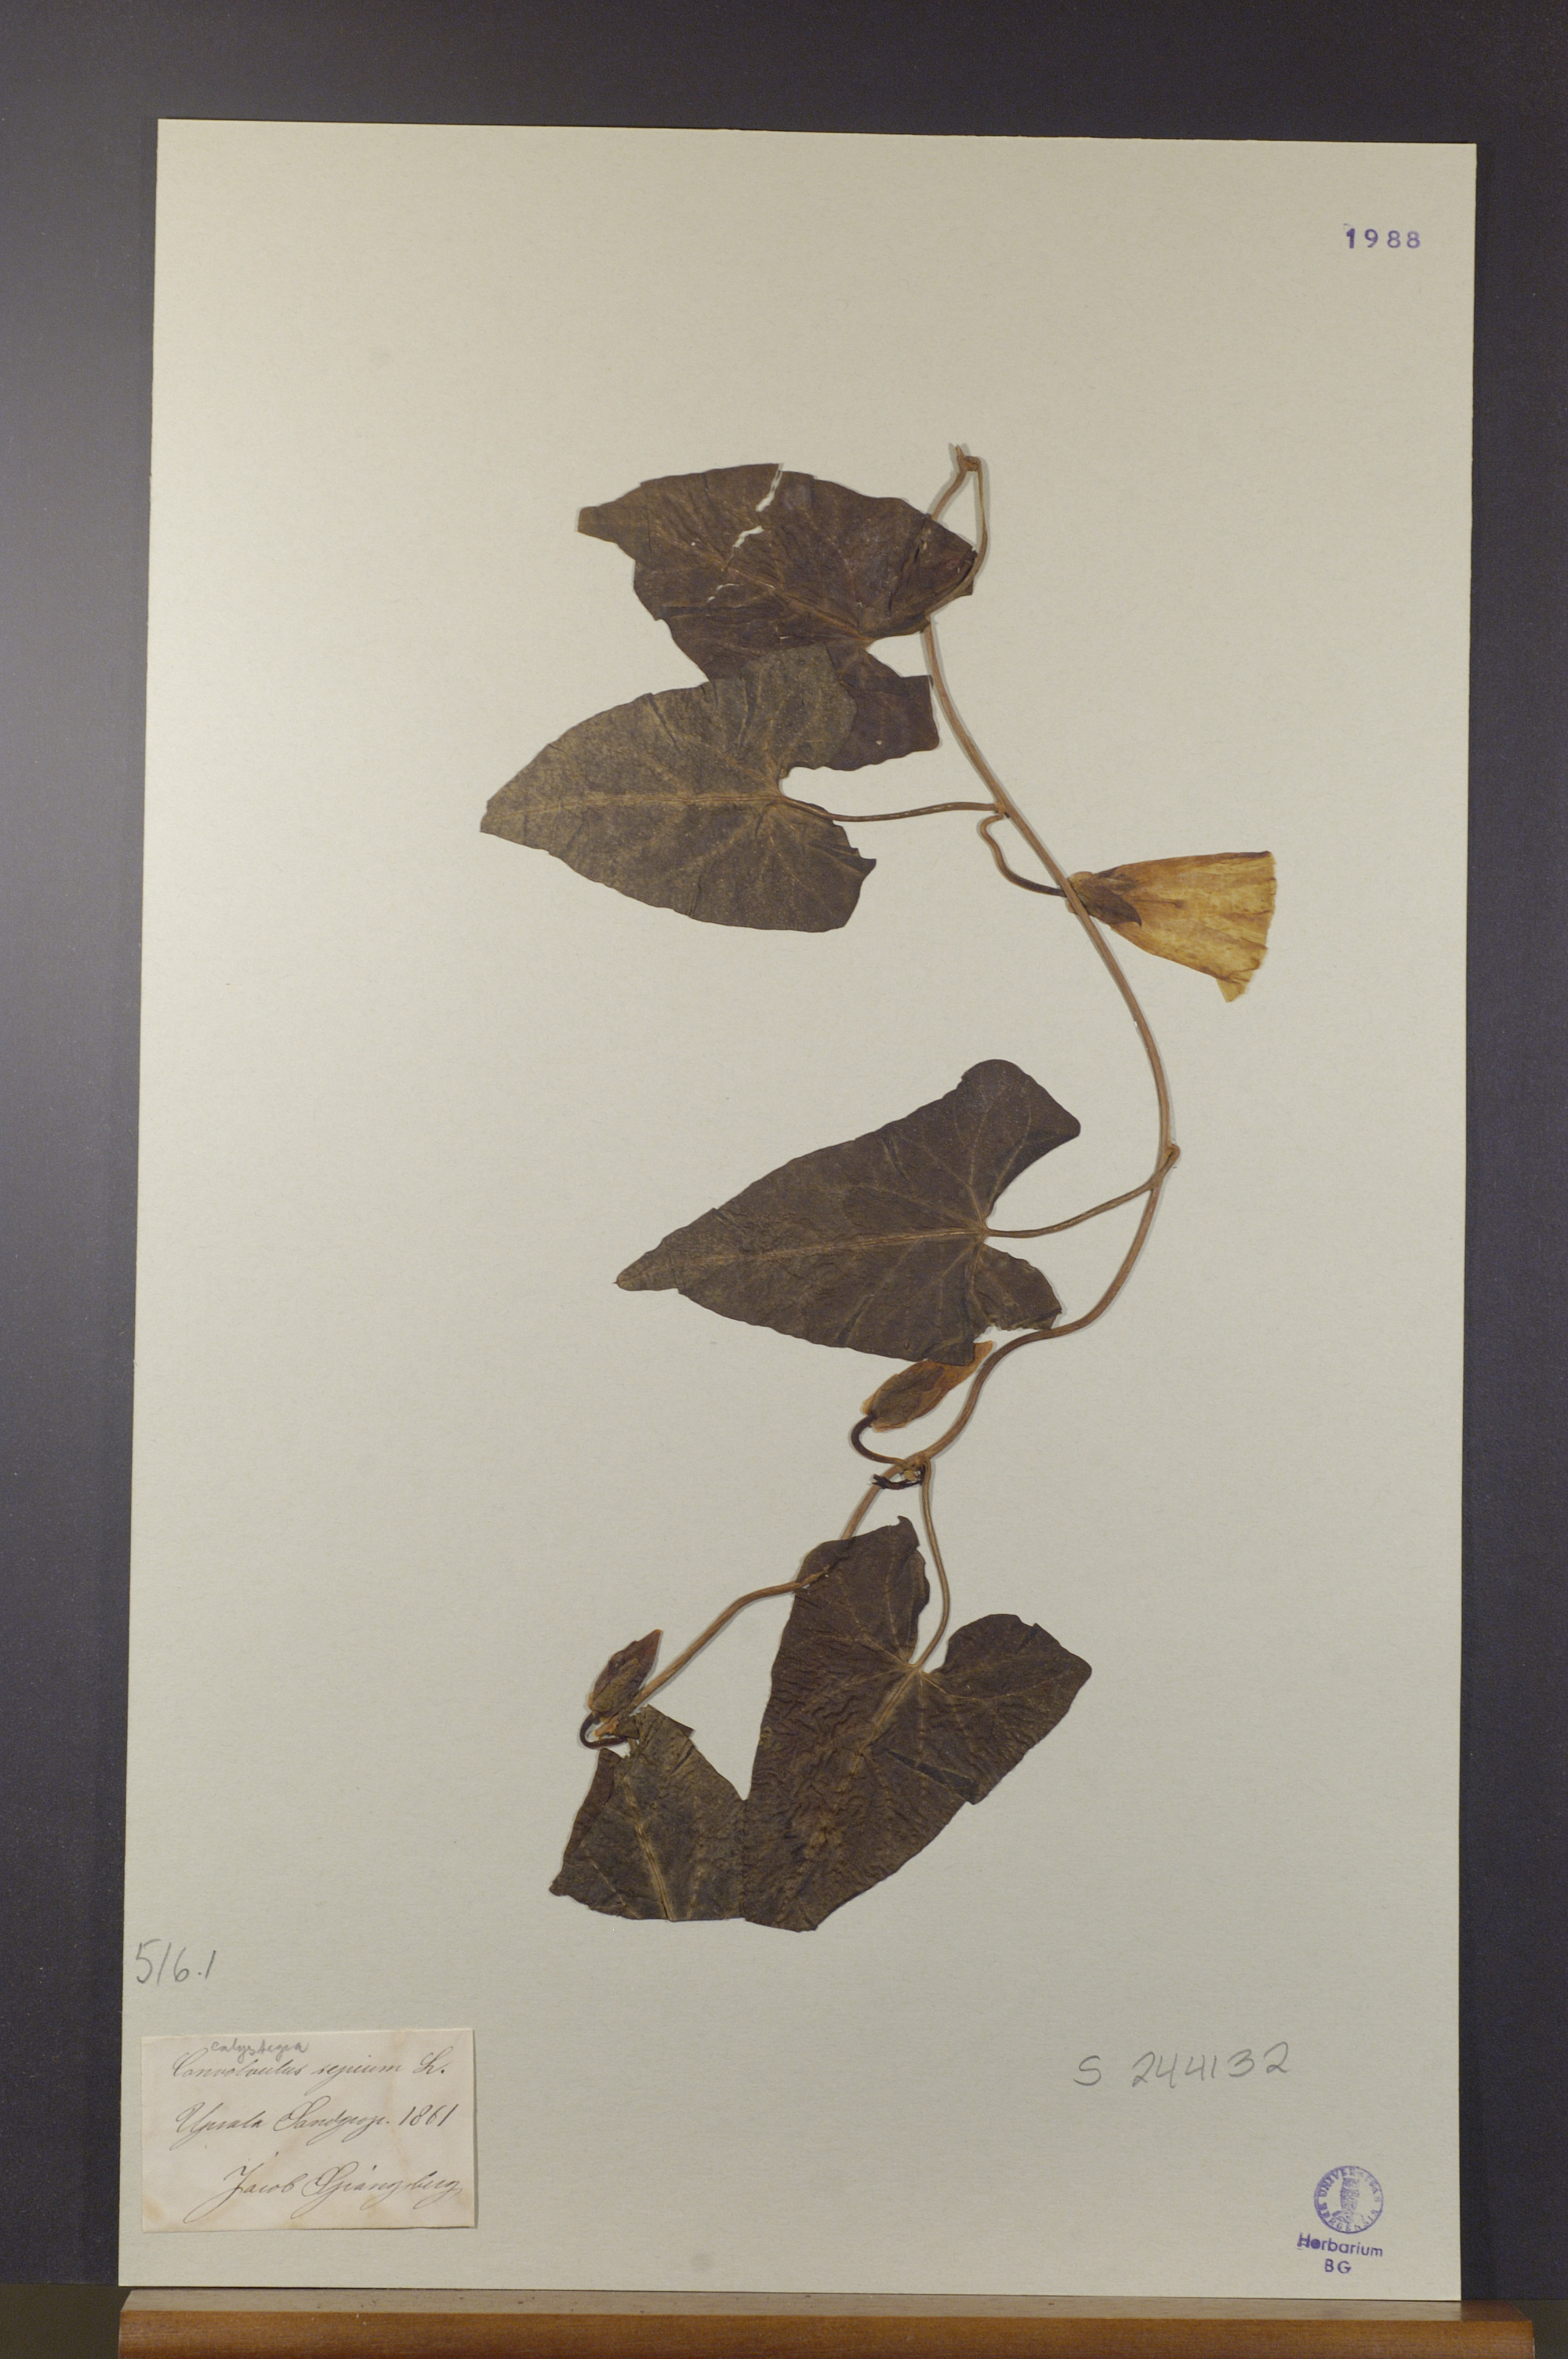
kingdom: Plantae
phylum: Tracheophyta
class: Magnoliopsida
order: Solanales
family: Convolvulaceae
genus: Calystegia
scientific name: Calystegia sepium
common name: Hedge bindweed
